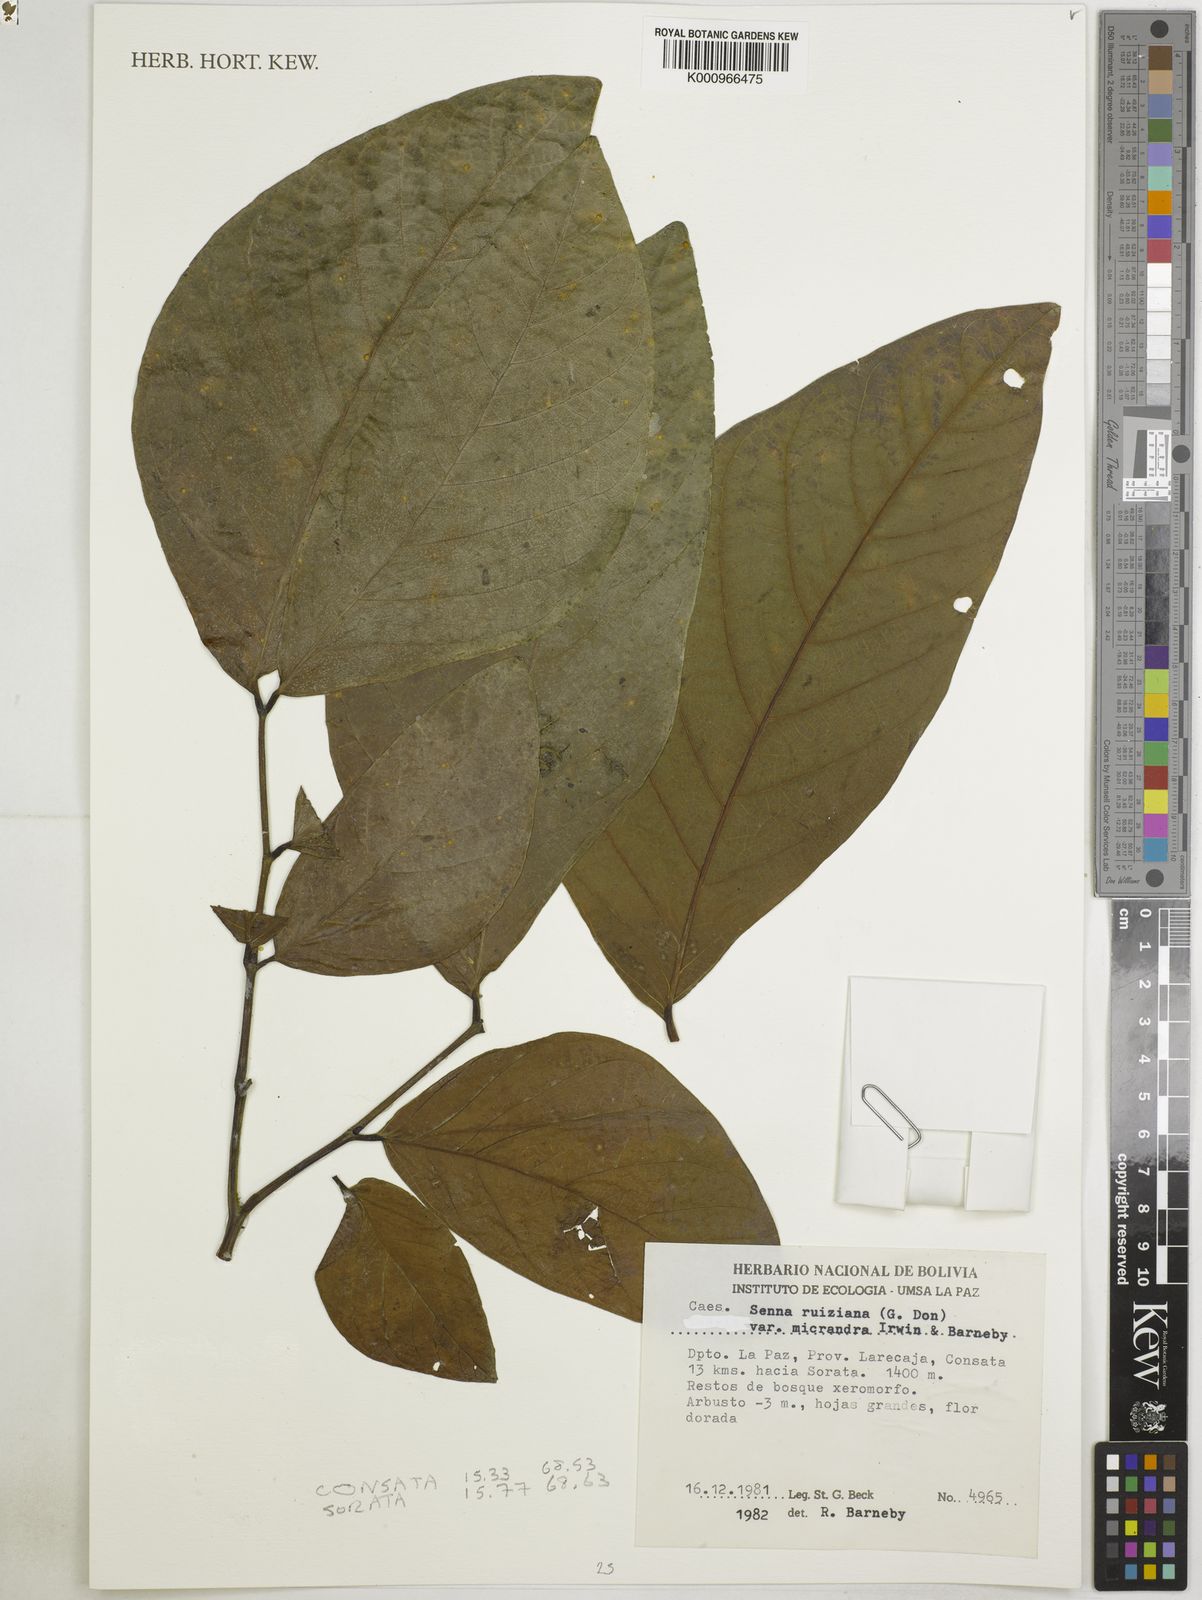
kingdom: Plantae
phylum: Tracheophyta
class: Magnoliopsida
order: Fabales
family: Fabaceae
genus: Senna
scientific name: Senna ruiziana
